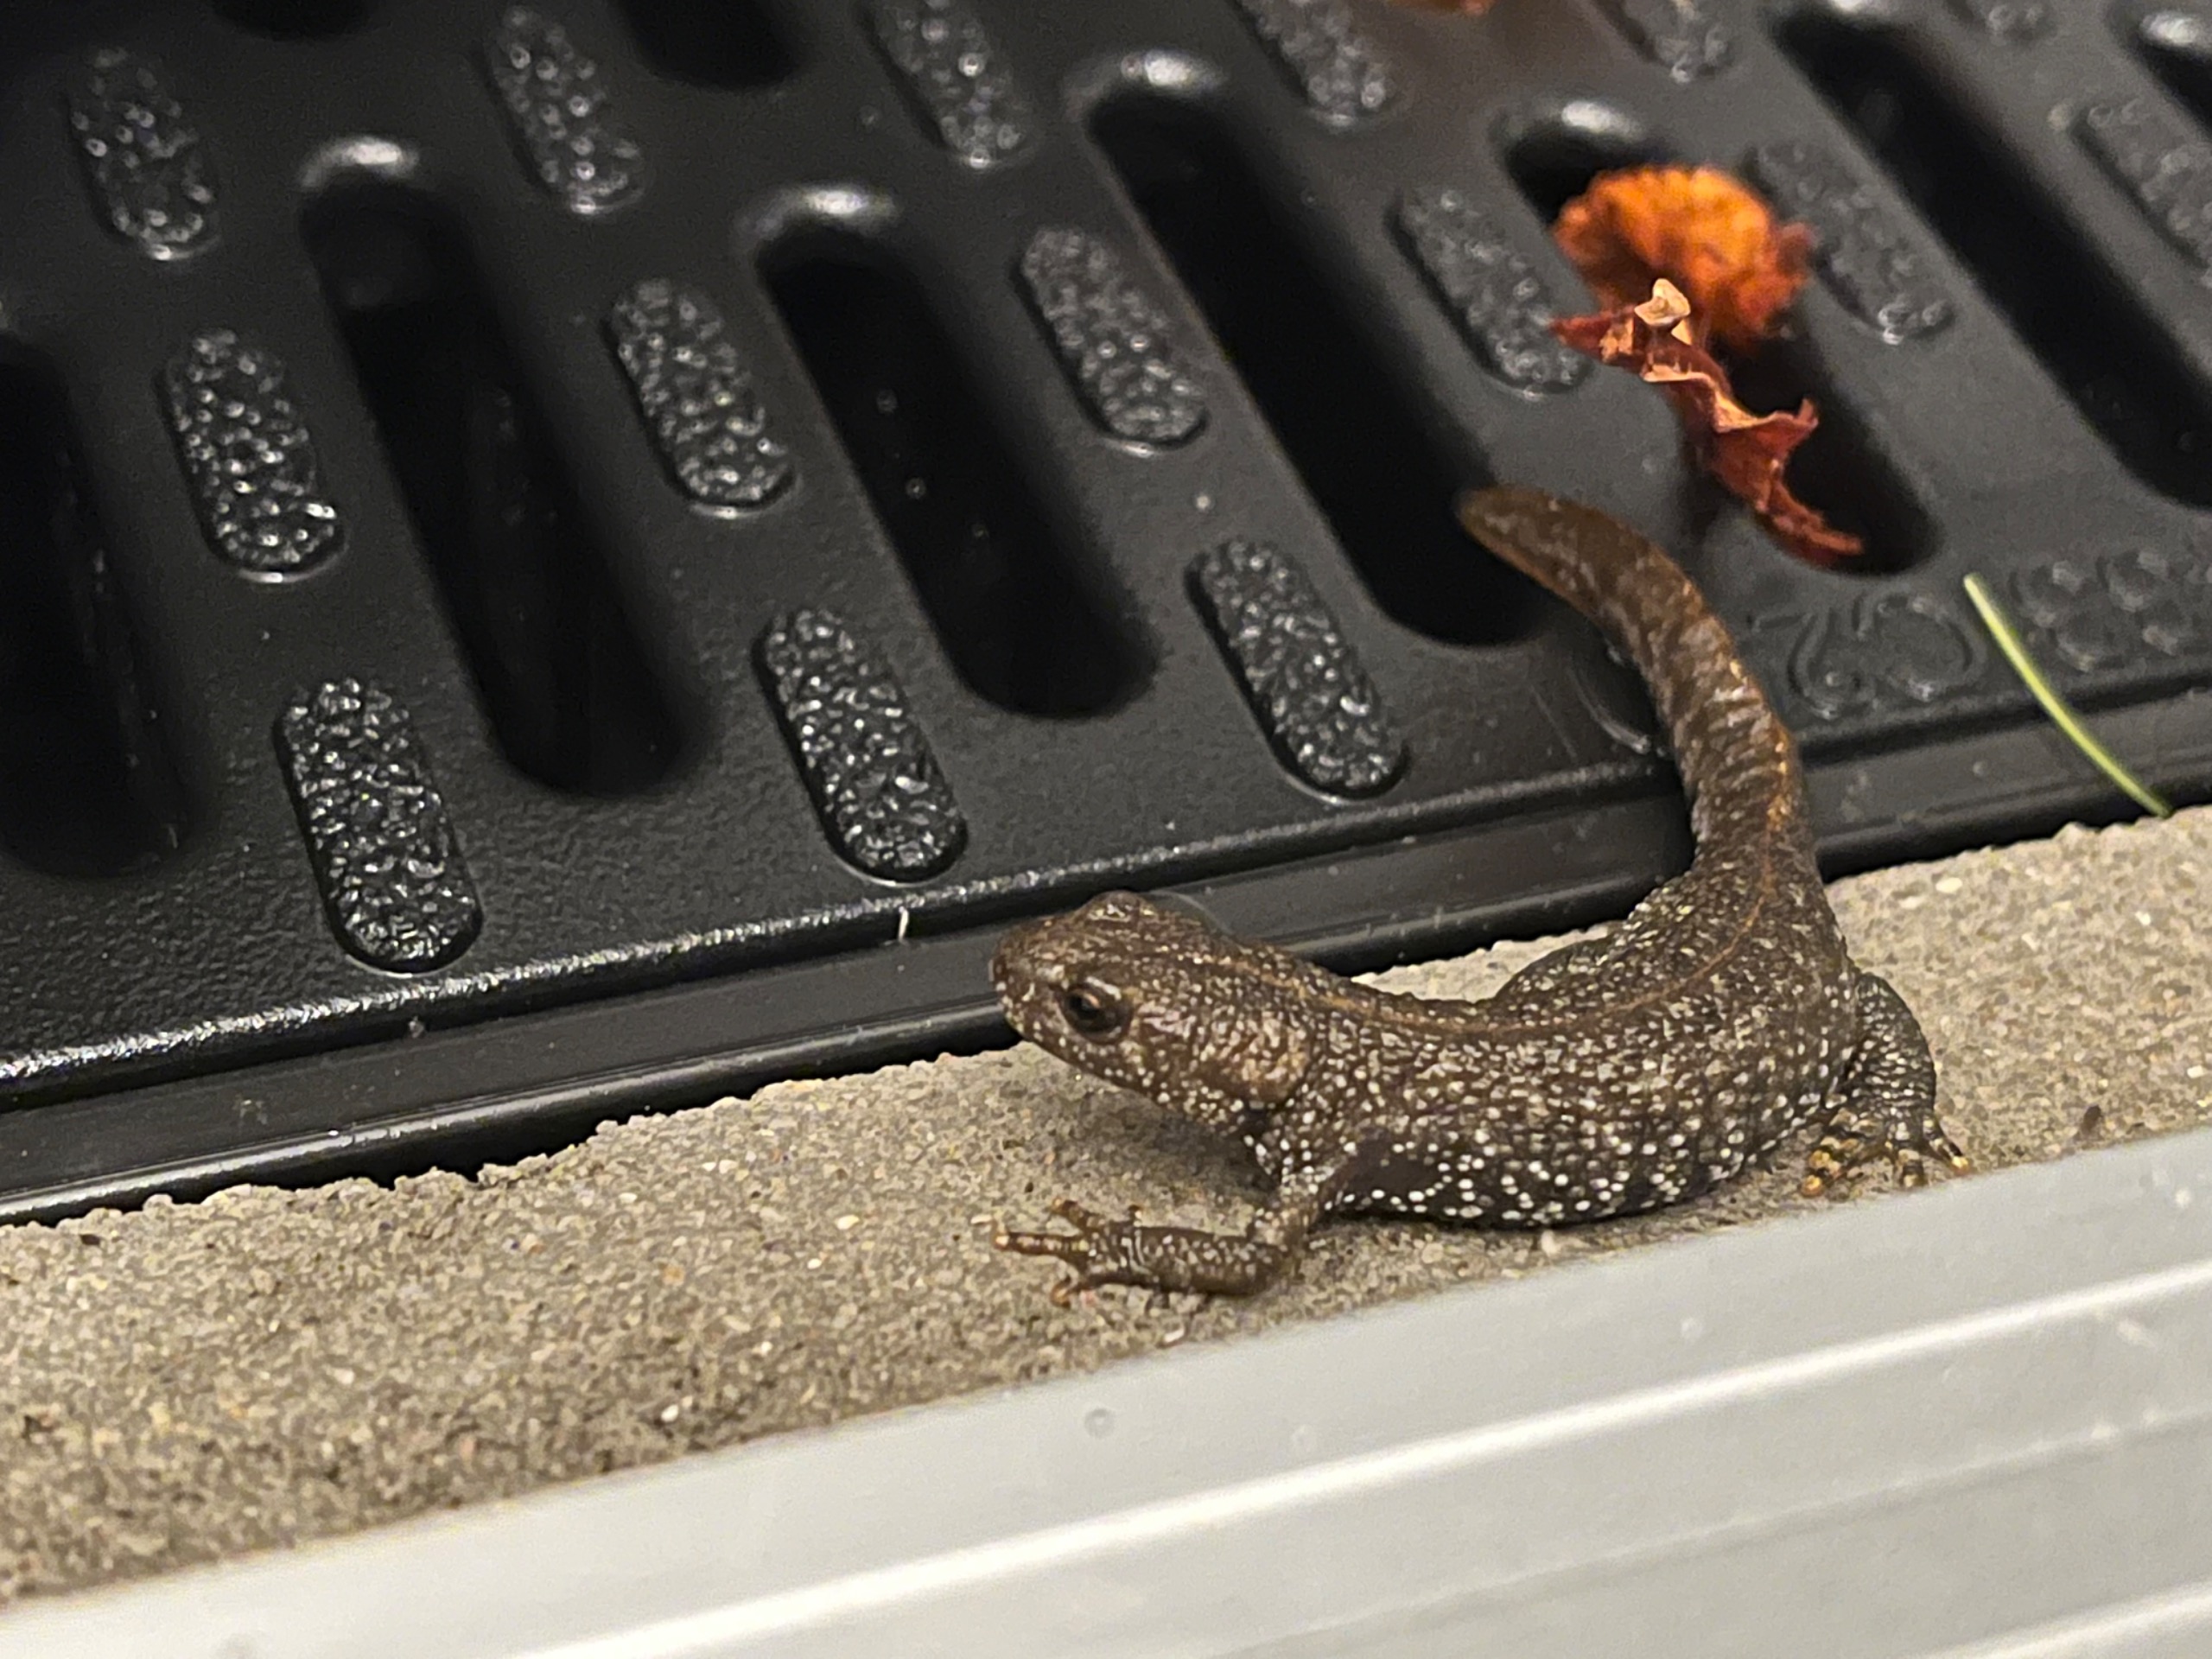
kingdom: Animalia
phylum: Chordata
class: Amphibia
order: Caudata
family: Salamandridae
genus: Triturus
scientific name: Triturus cristatus
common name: Stor vandsalamander
